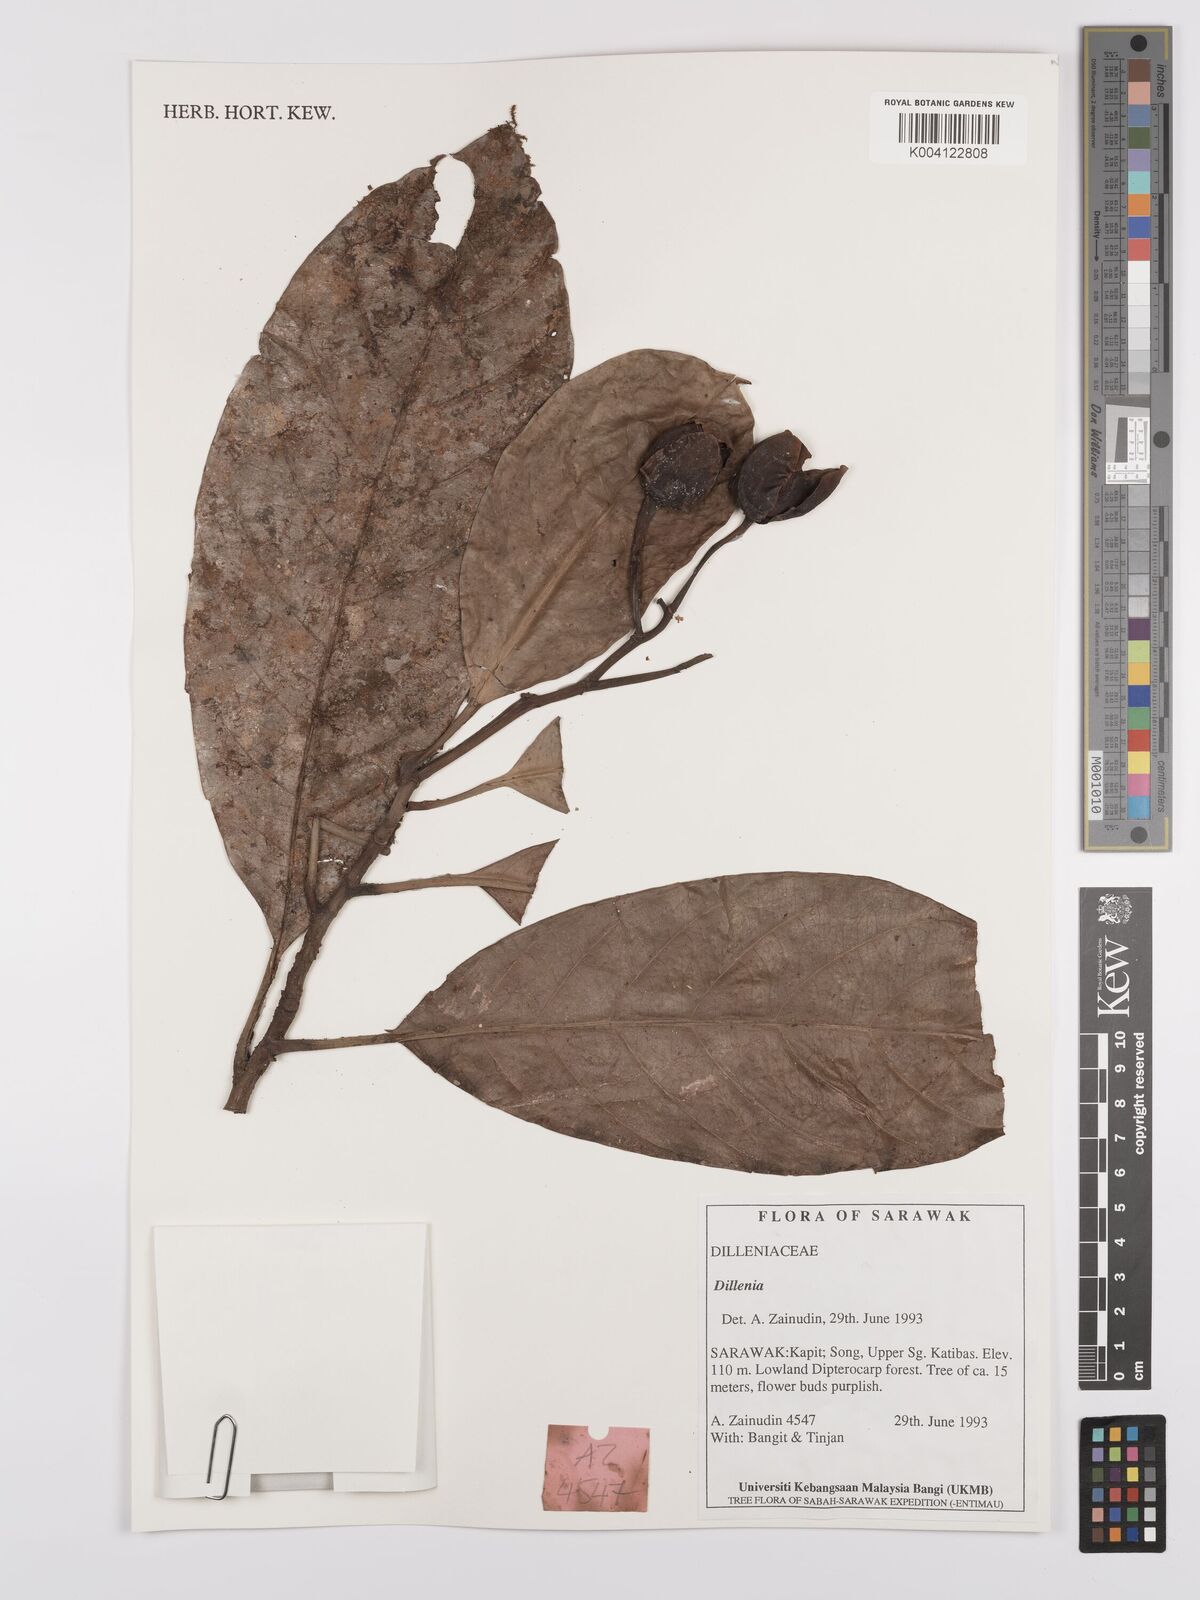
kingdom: Plantae
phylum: Tracheophyta
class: Magnoliopsida
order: Dilleniales
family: Dilleniaceae
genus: Dillenia
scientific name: Dillenia
